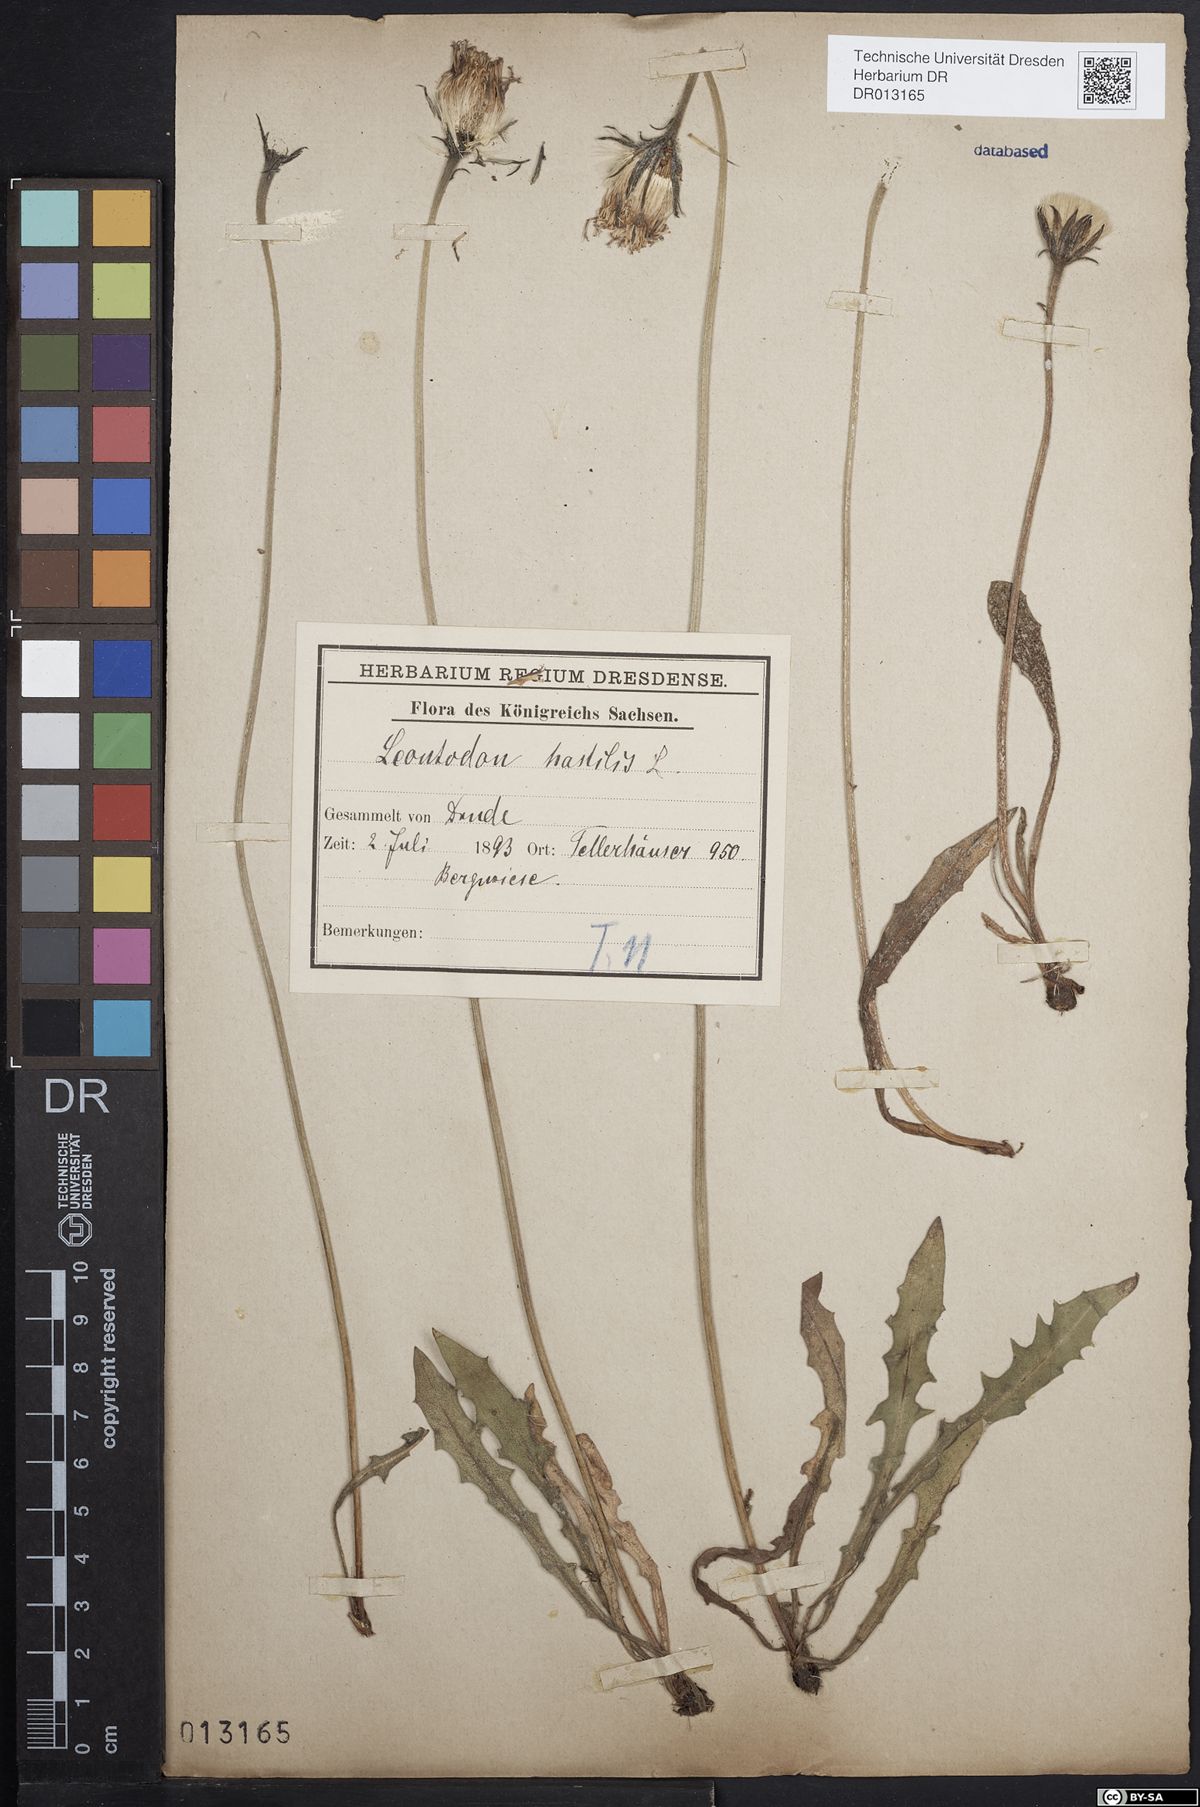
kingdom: Plantae
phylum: Tracheophyta
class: Magnoliopsida
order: Asterales
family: Asteraceae
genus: Leontodon
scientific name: Leontodon hispidus
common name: Rough hawkbit
